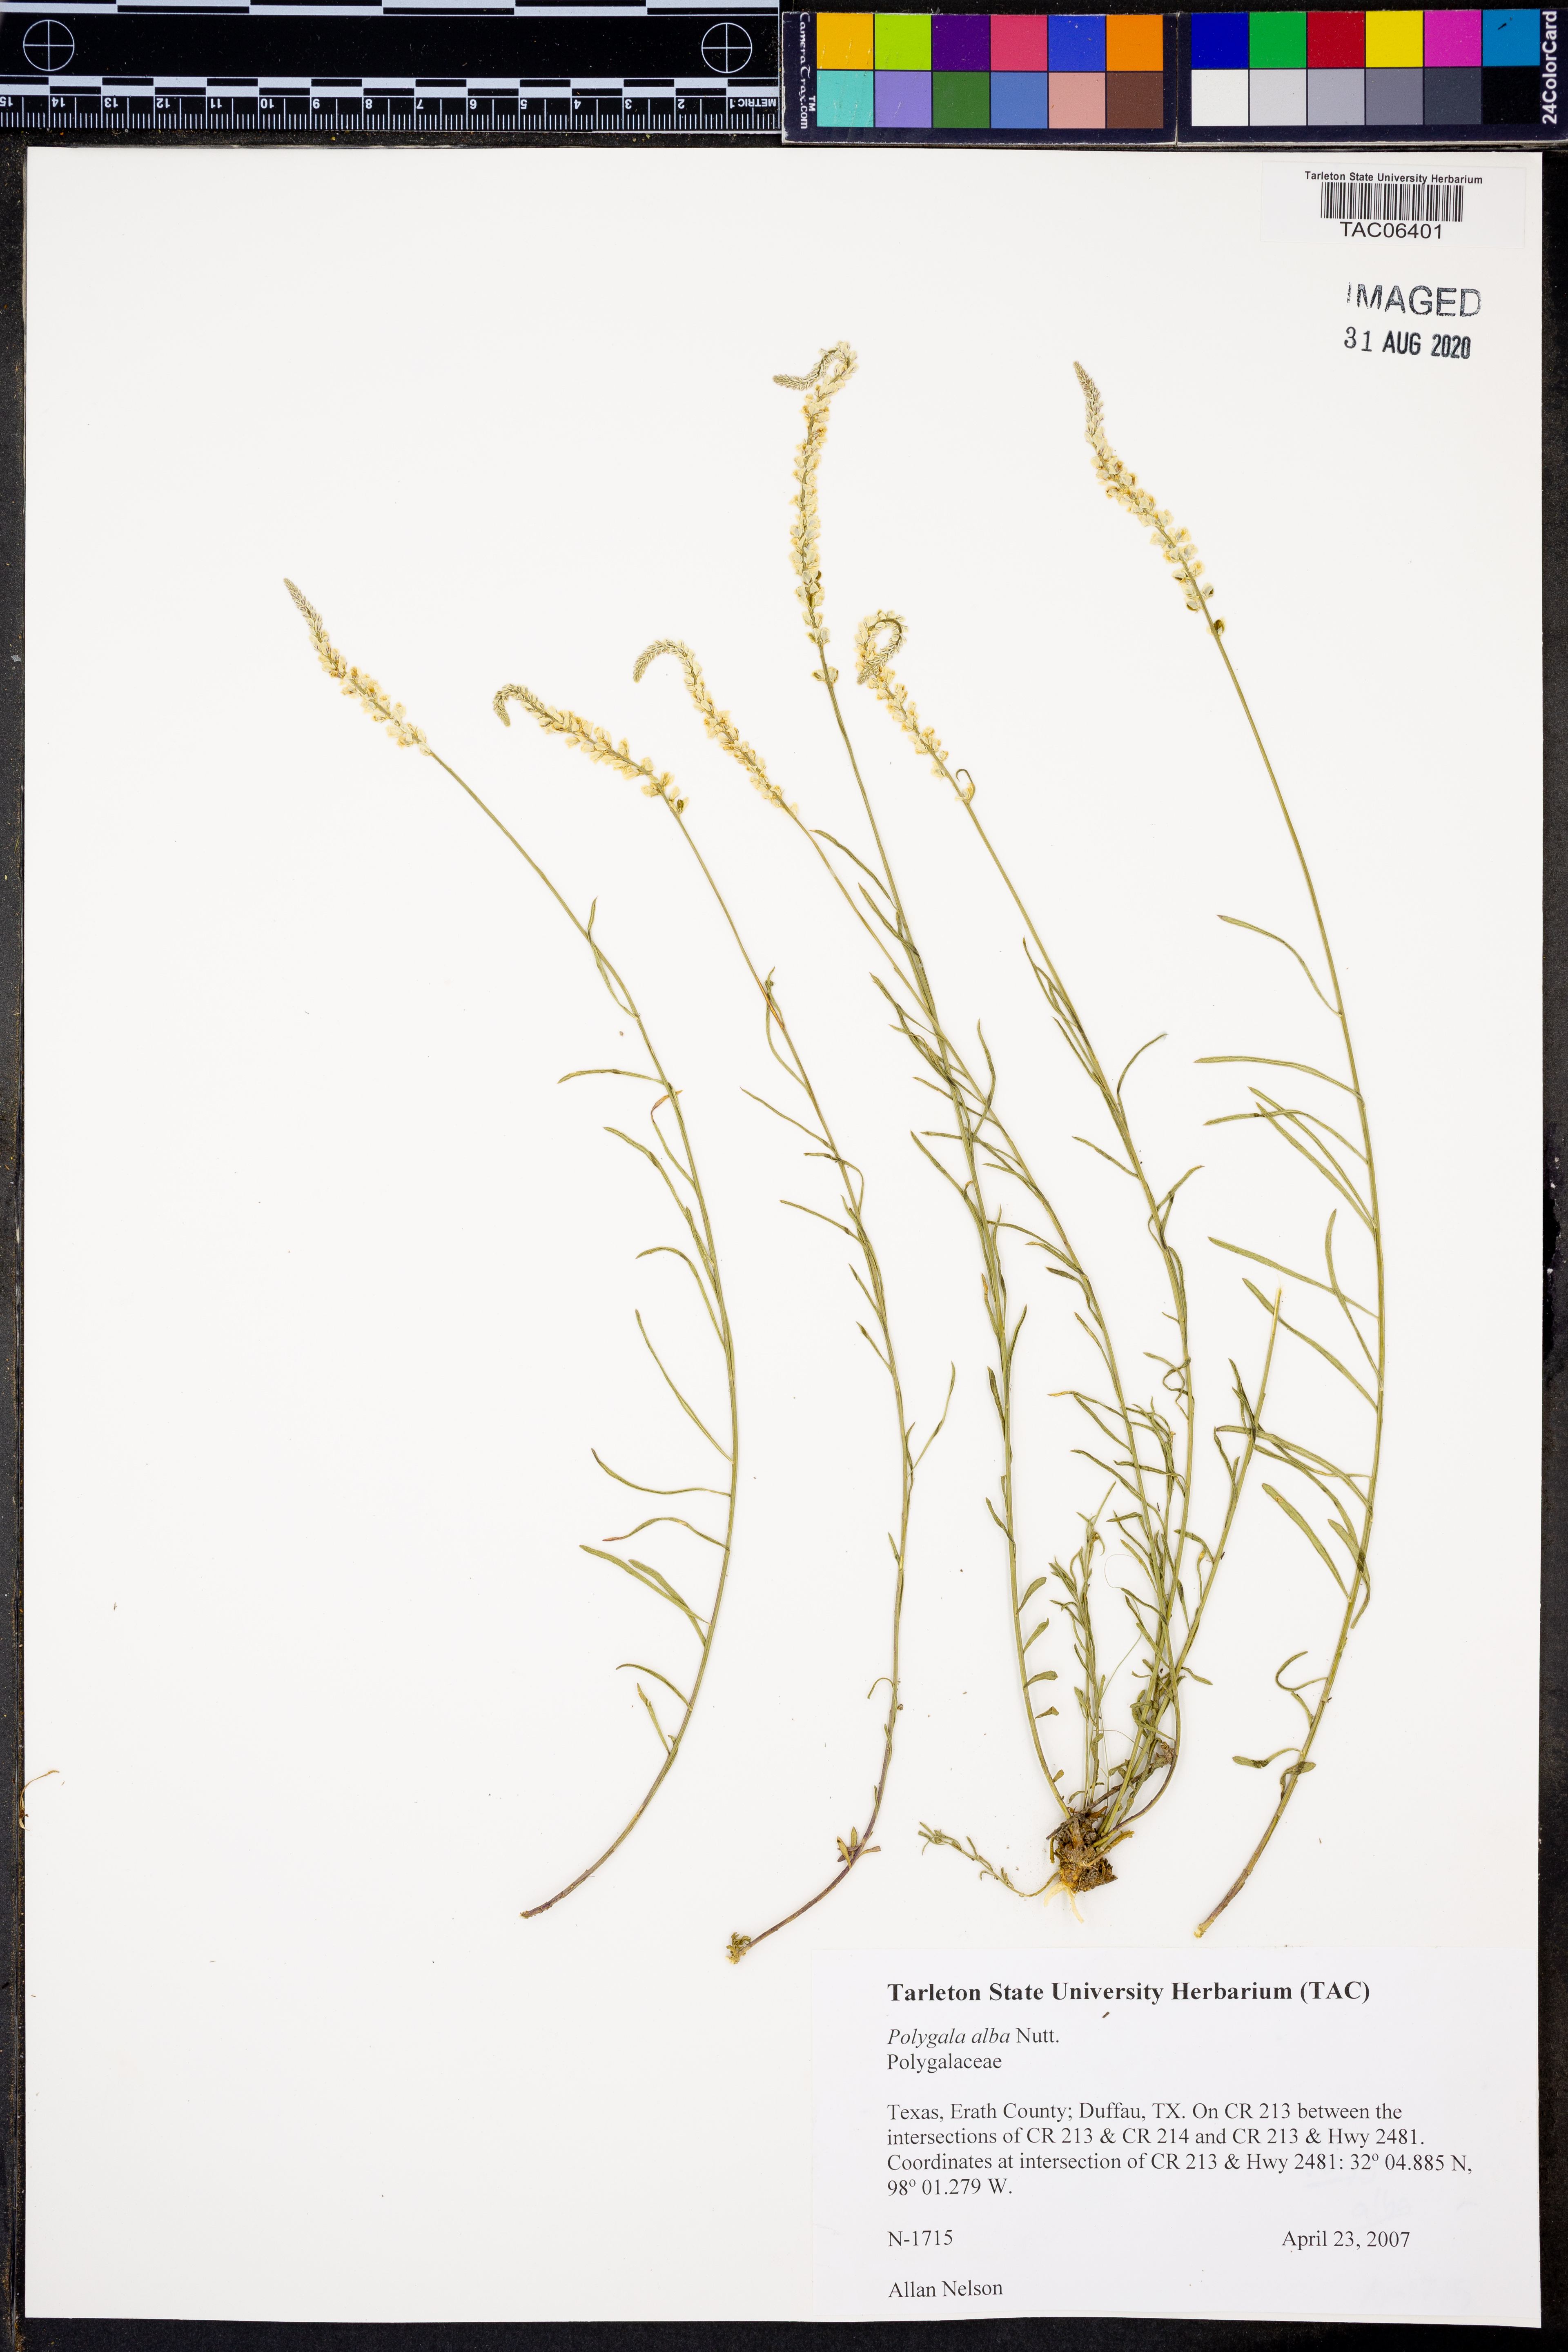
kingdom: Plantae
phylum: Tracheophyta
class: Magnoliopsida
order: Fabales
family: Polygalaceae
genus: Polygala
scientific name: Polygala alba
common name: White milkwort
